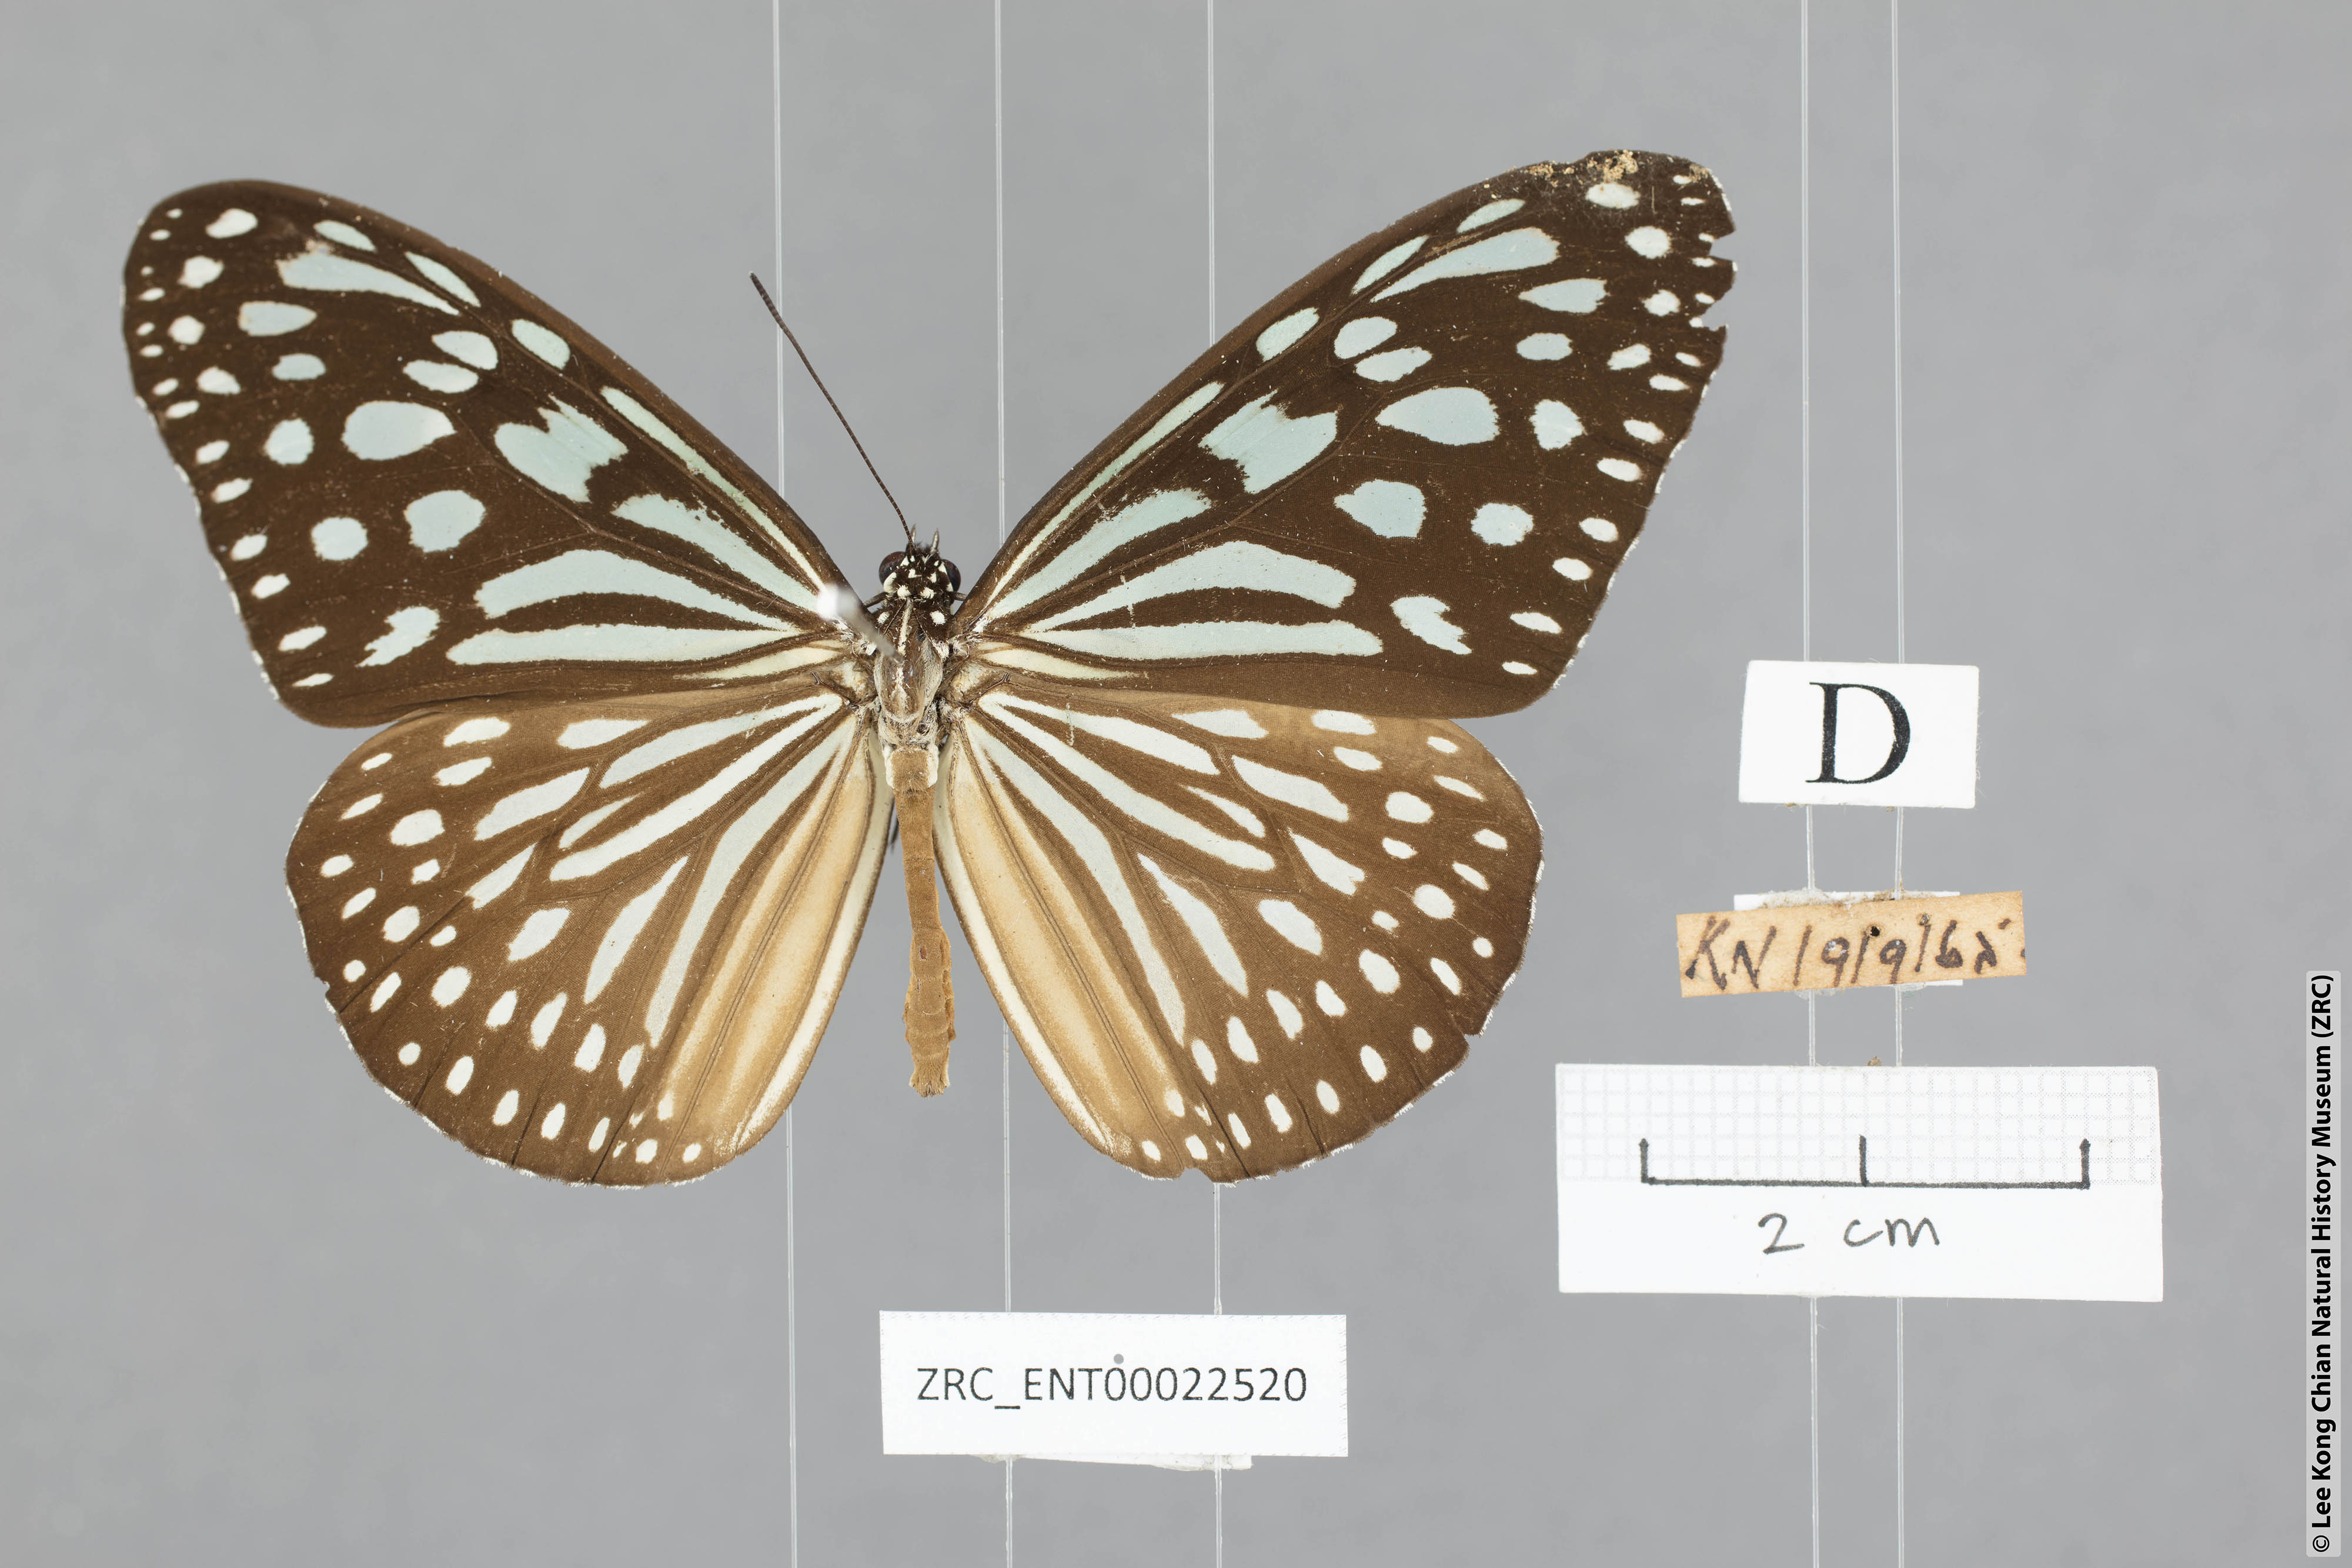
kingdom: Animalia
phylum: Arthropoda
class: Insecta
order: Lepidoptera
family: Nymphalidae
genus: Ideopsis
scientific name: Ideopsis similis
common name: Ceylon blue glassy tiger
